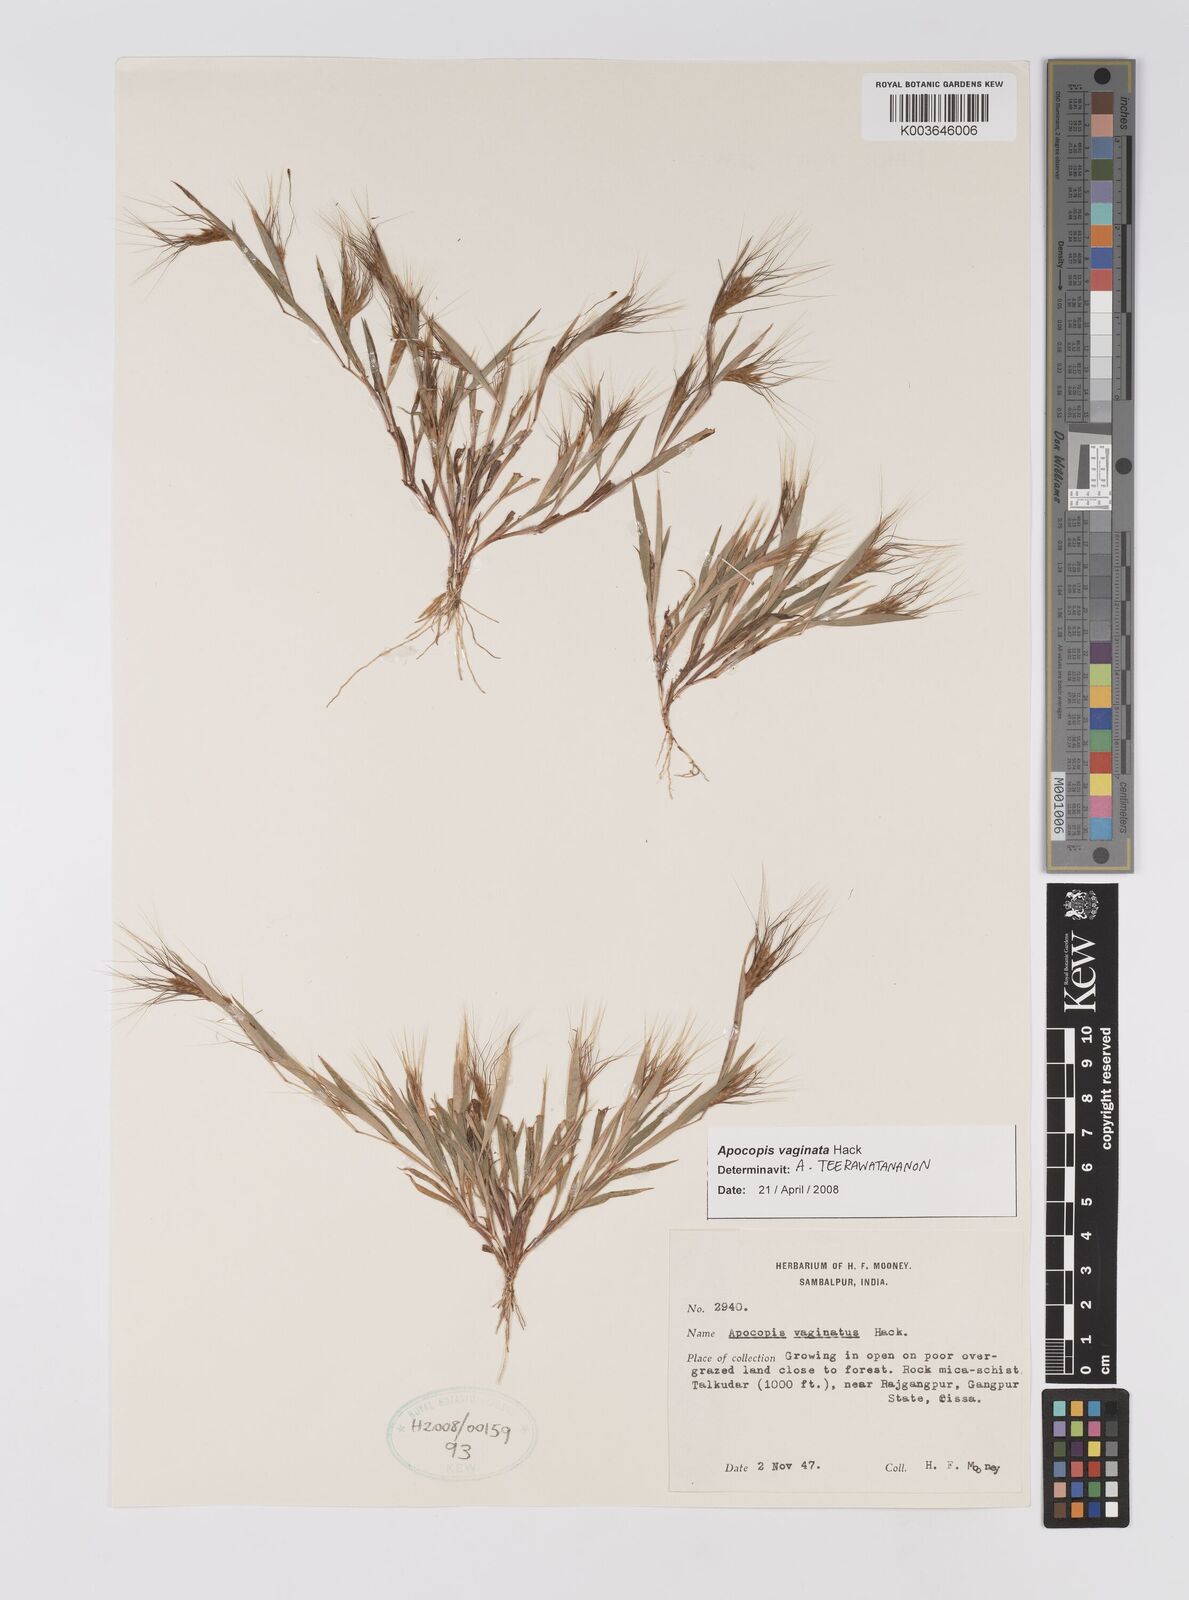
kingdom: Plantae
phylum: Tracheophyta
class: Liliopsida
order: Poales
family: Poaceae
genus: Apocopis
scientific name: Apocopis vaginatus
